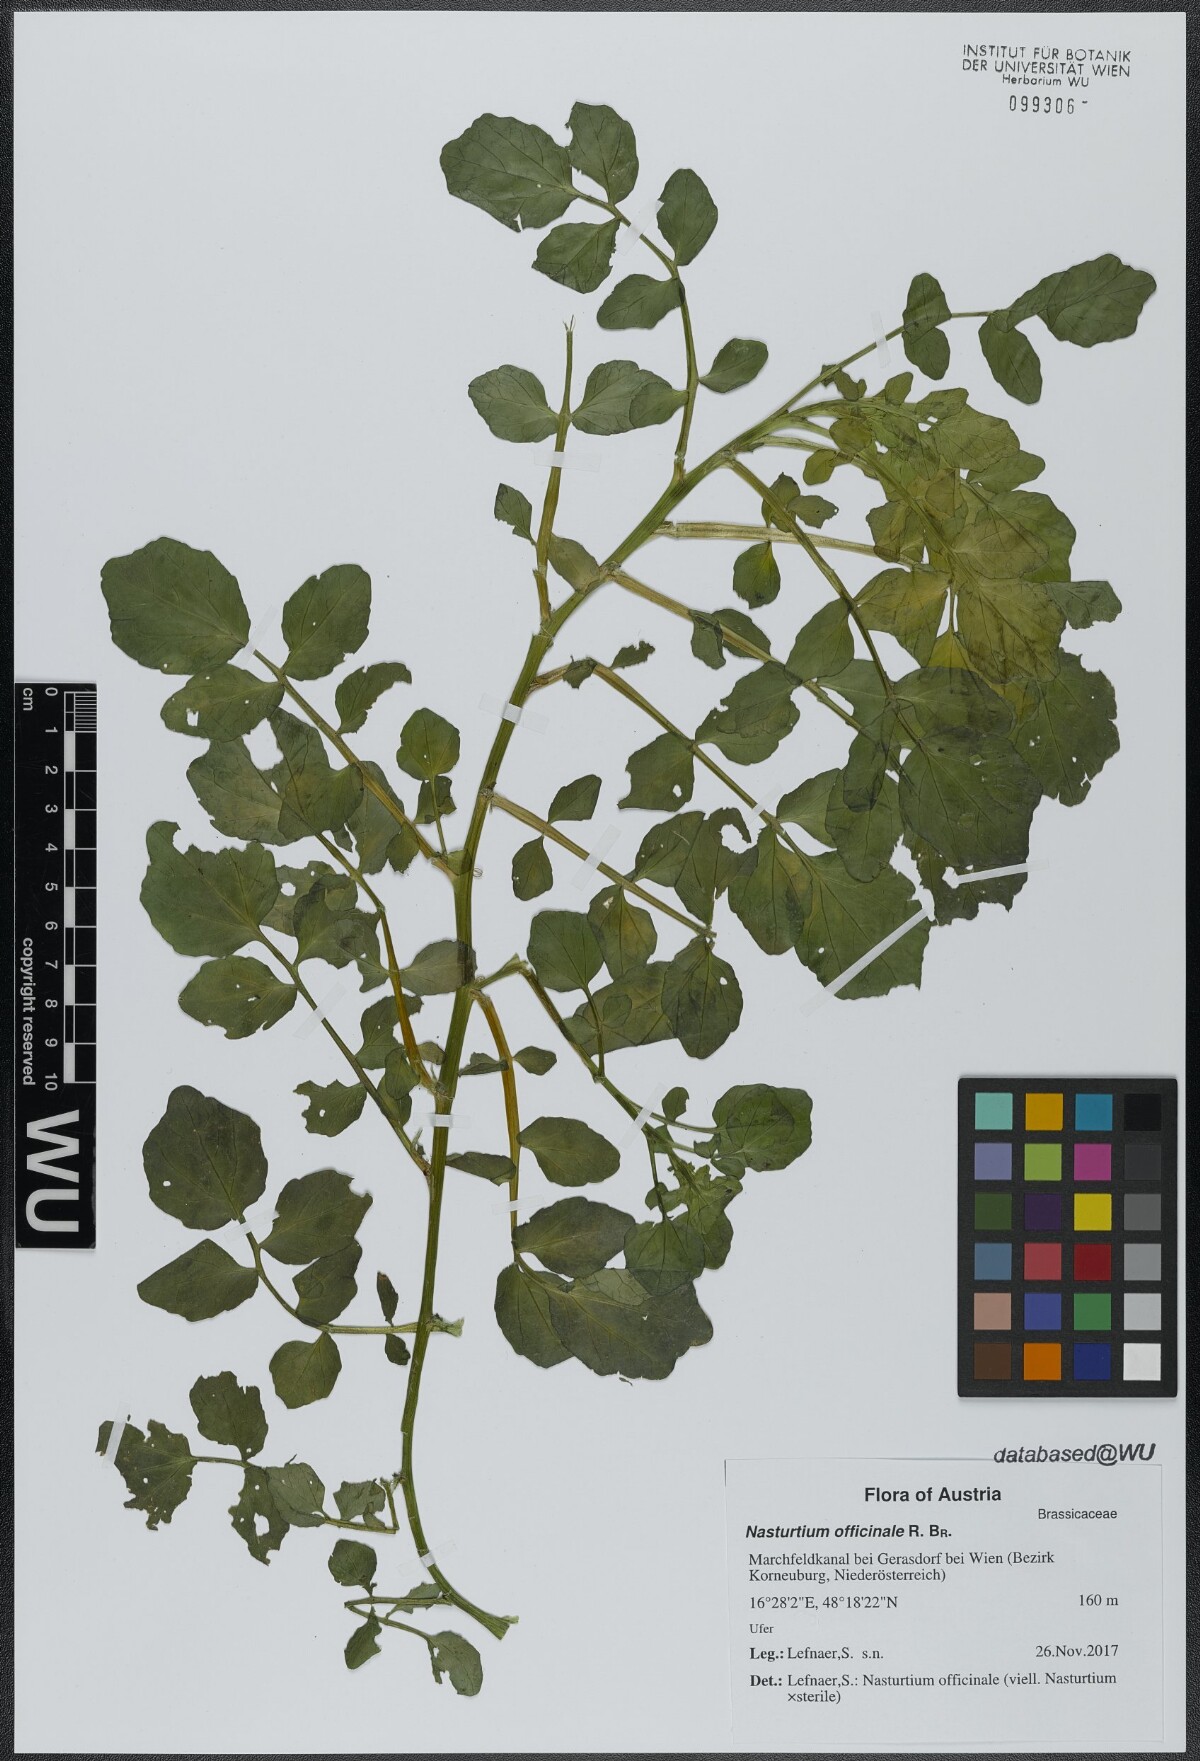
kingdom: Plantae
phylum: Tracheophyta
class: Magnoliopsida
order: Brassicales
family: Brassicaceae
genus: Nasturtium
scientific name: Nasturtium officinale
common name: Watercress
